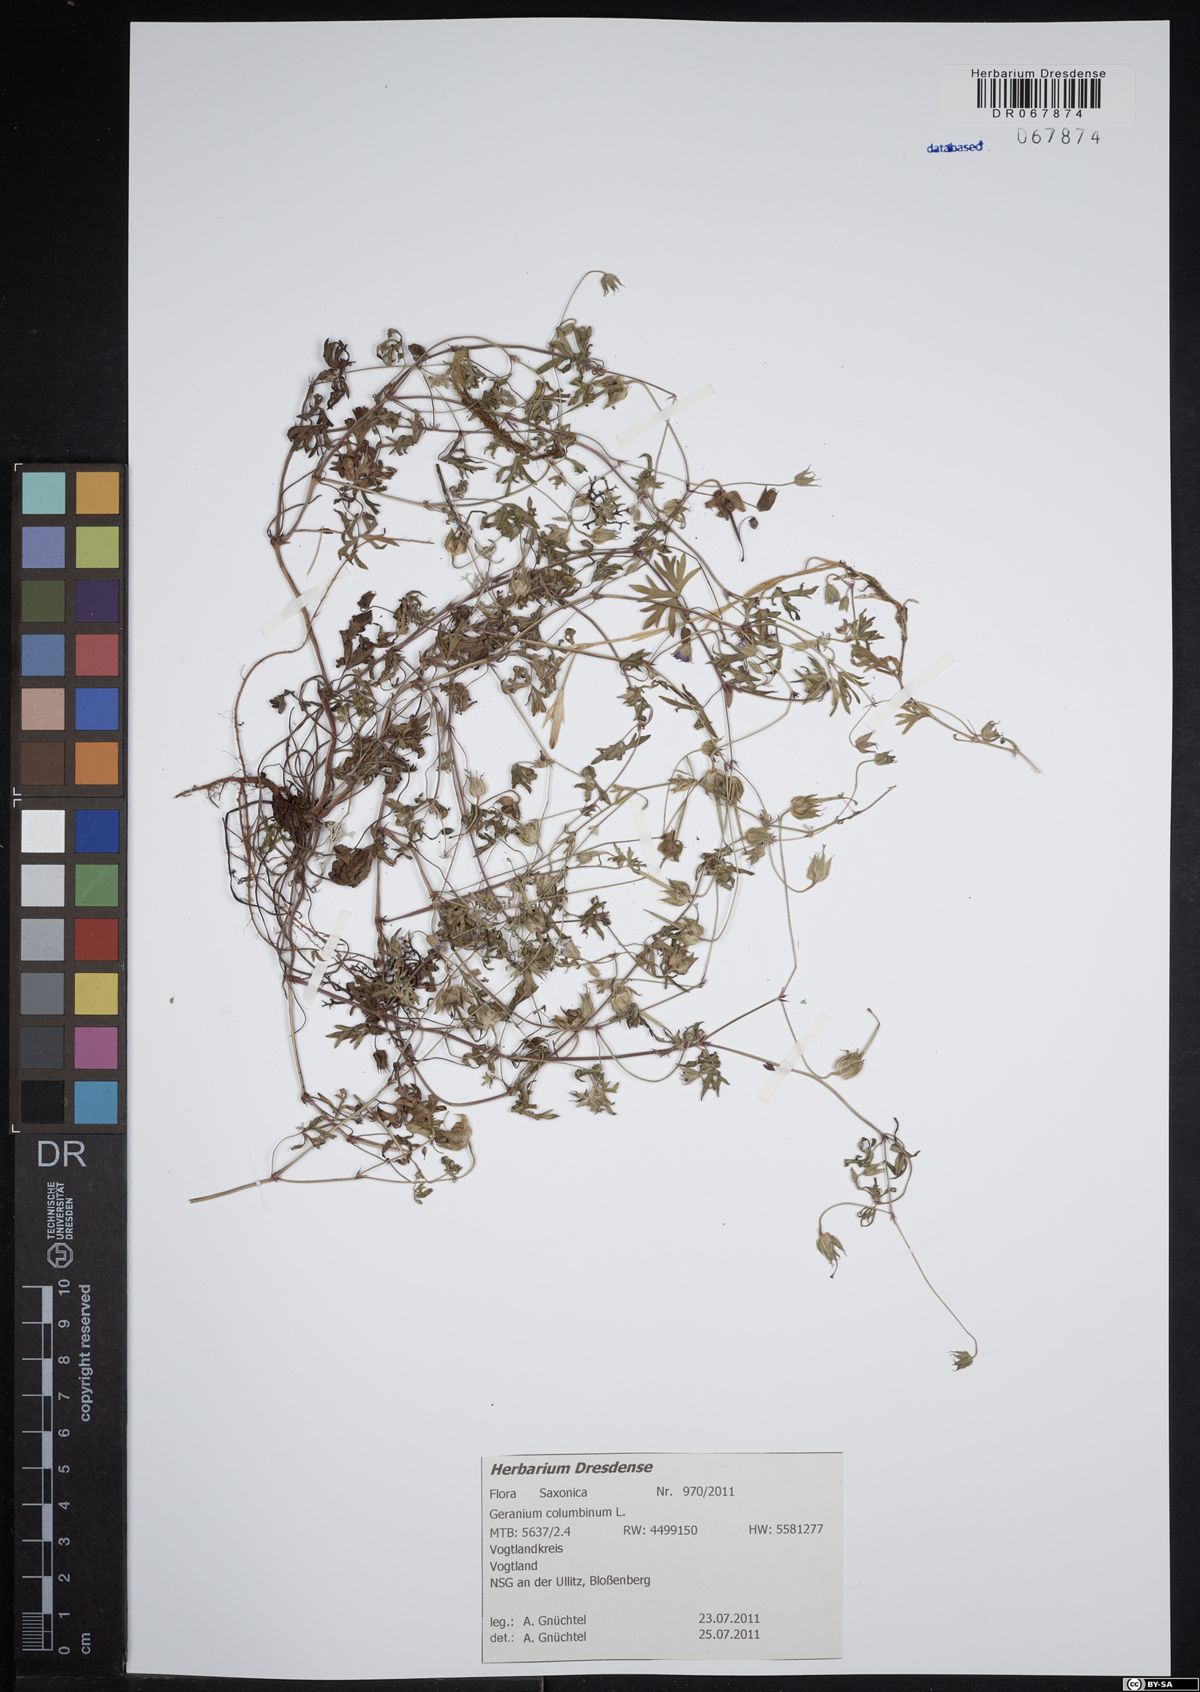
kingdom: Plantae
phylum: Tracheophyta
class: Magnoliopsida
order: Geraniales
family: Geraniaceae
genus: Geranium
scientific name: Geranium columbinum
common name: Long-stalked crane's-bill
